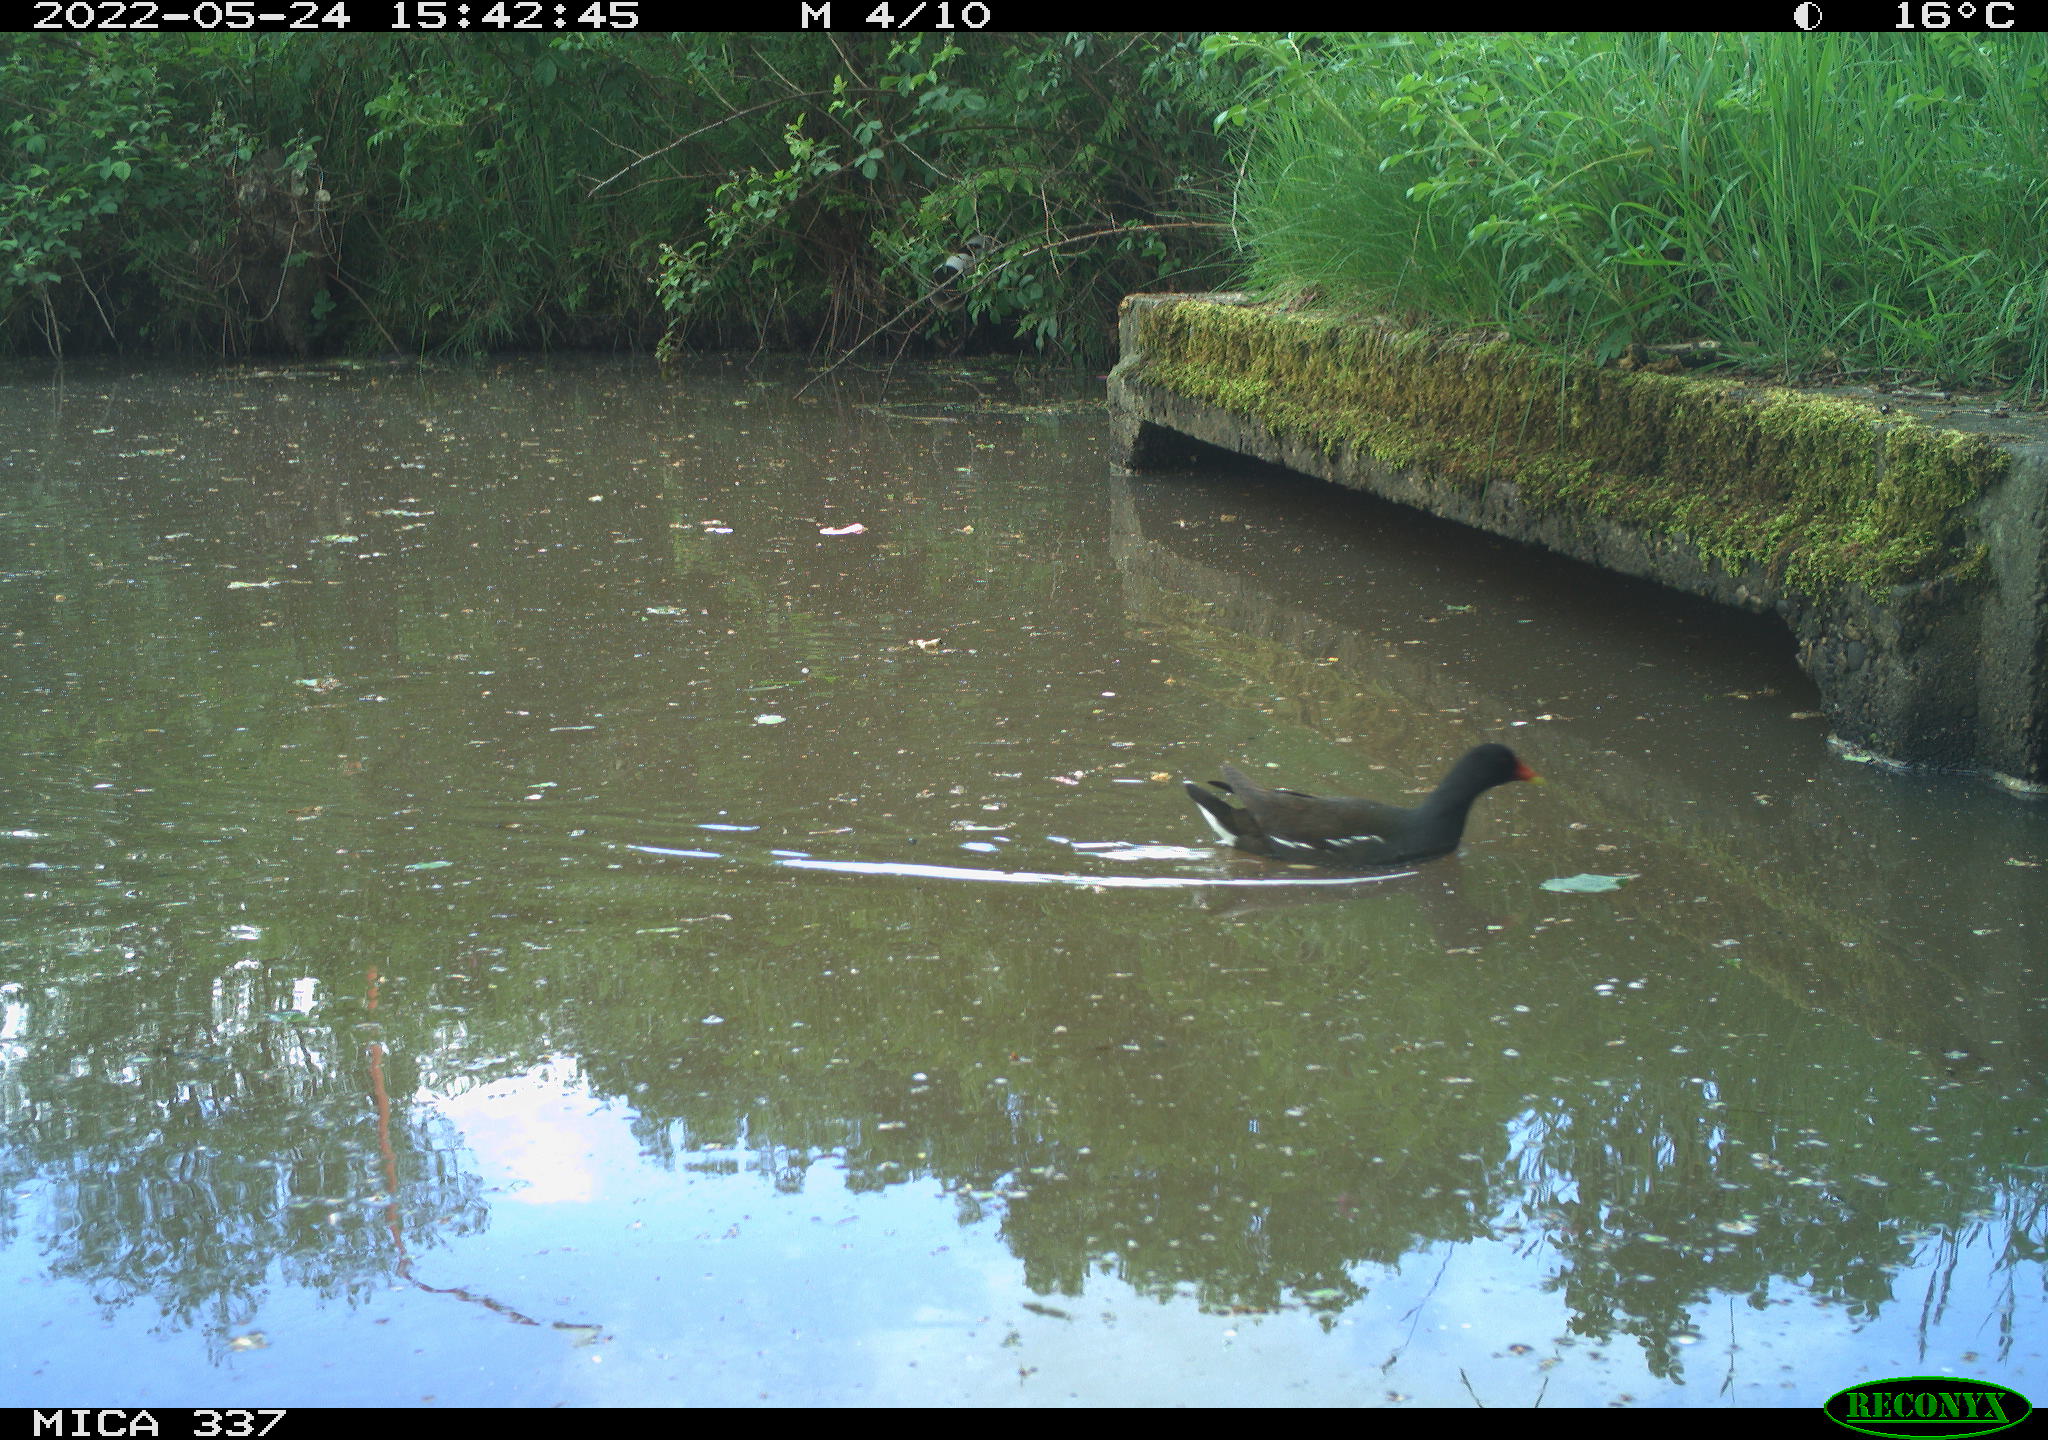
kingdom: Animalia
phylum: Chordata
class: Aves
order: Gruiformes
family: Rallidae
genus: Gallinula
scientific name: Gallinula chloropus
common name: Common moorhen
